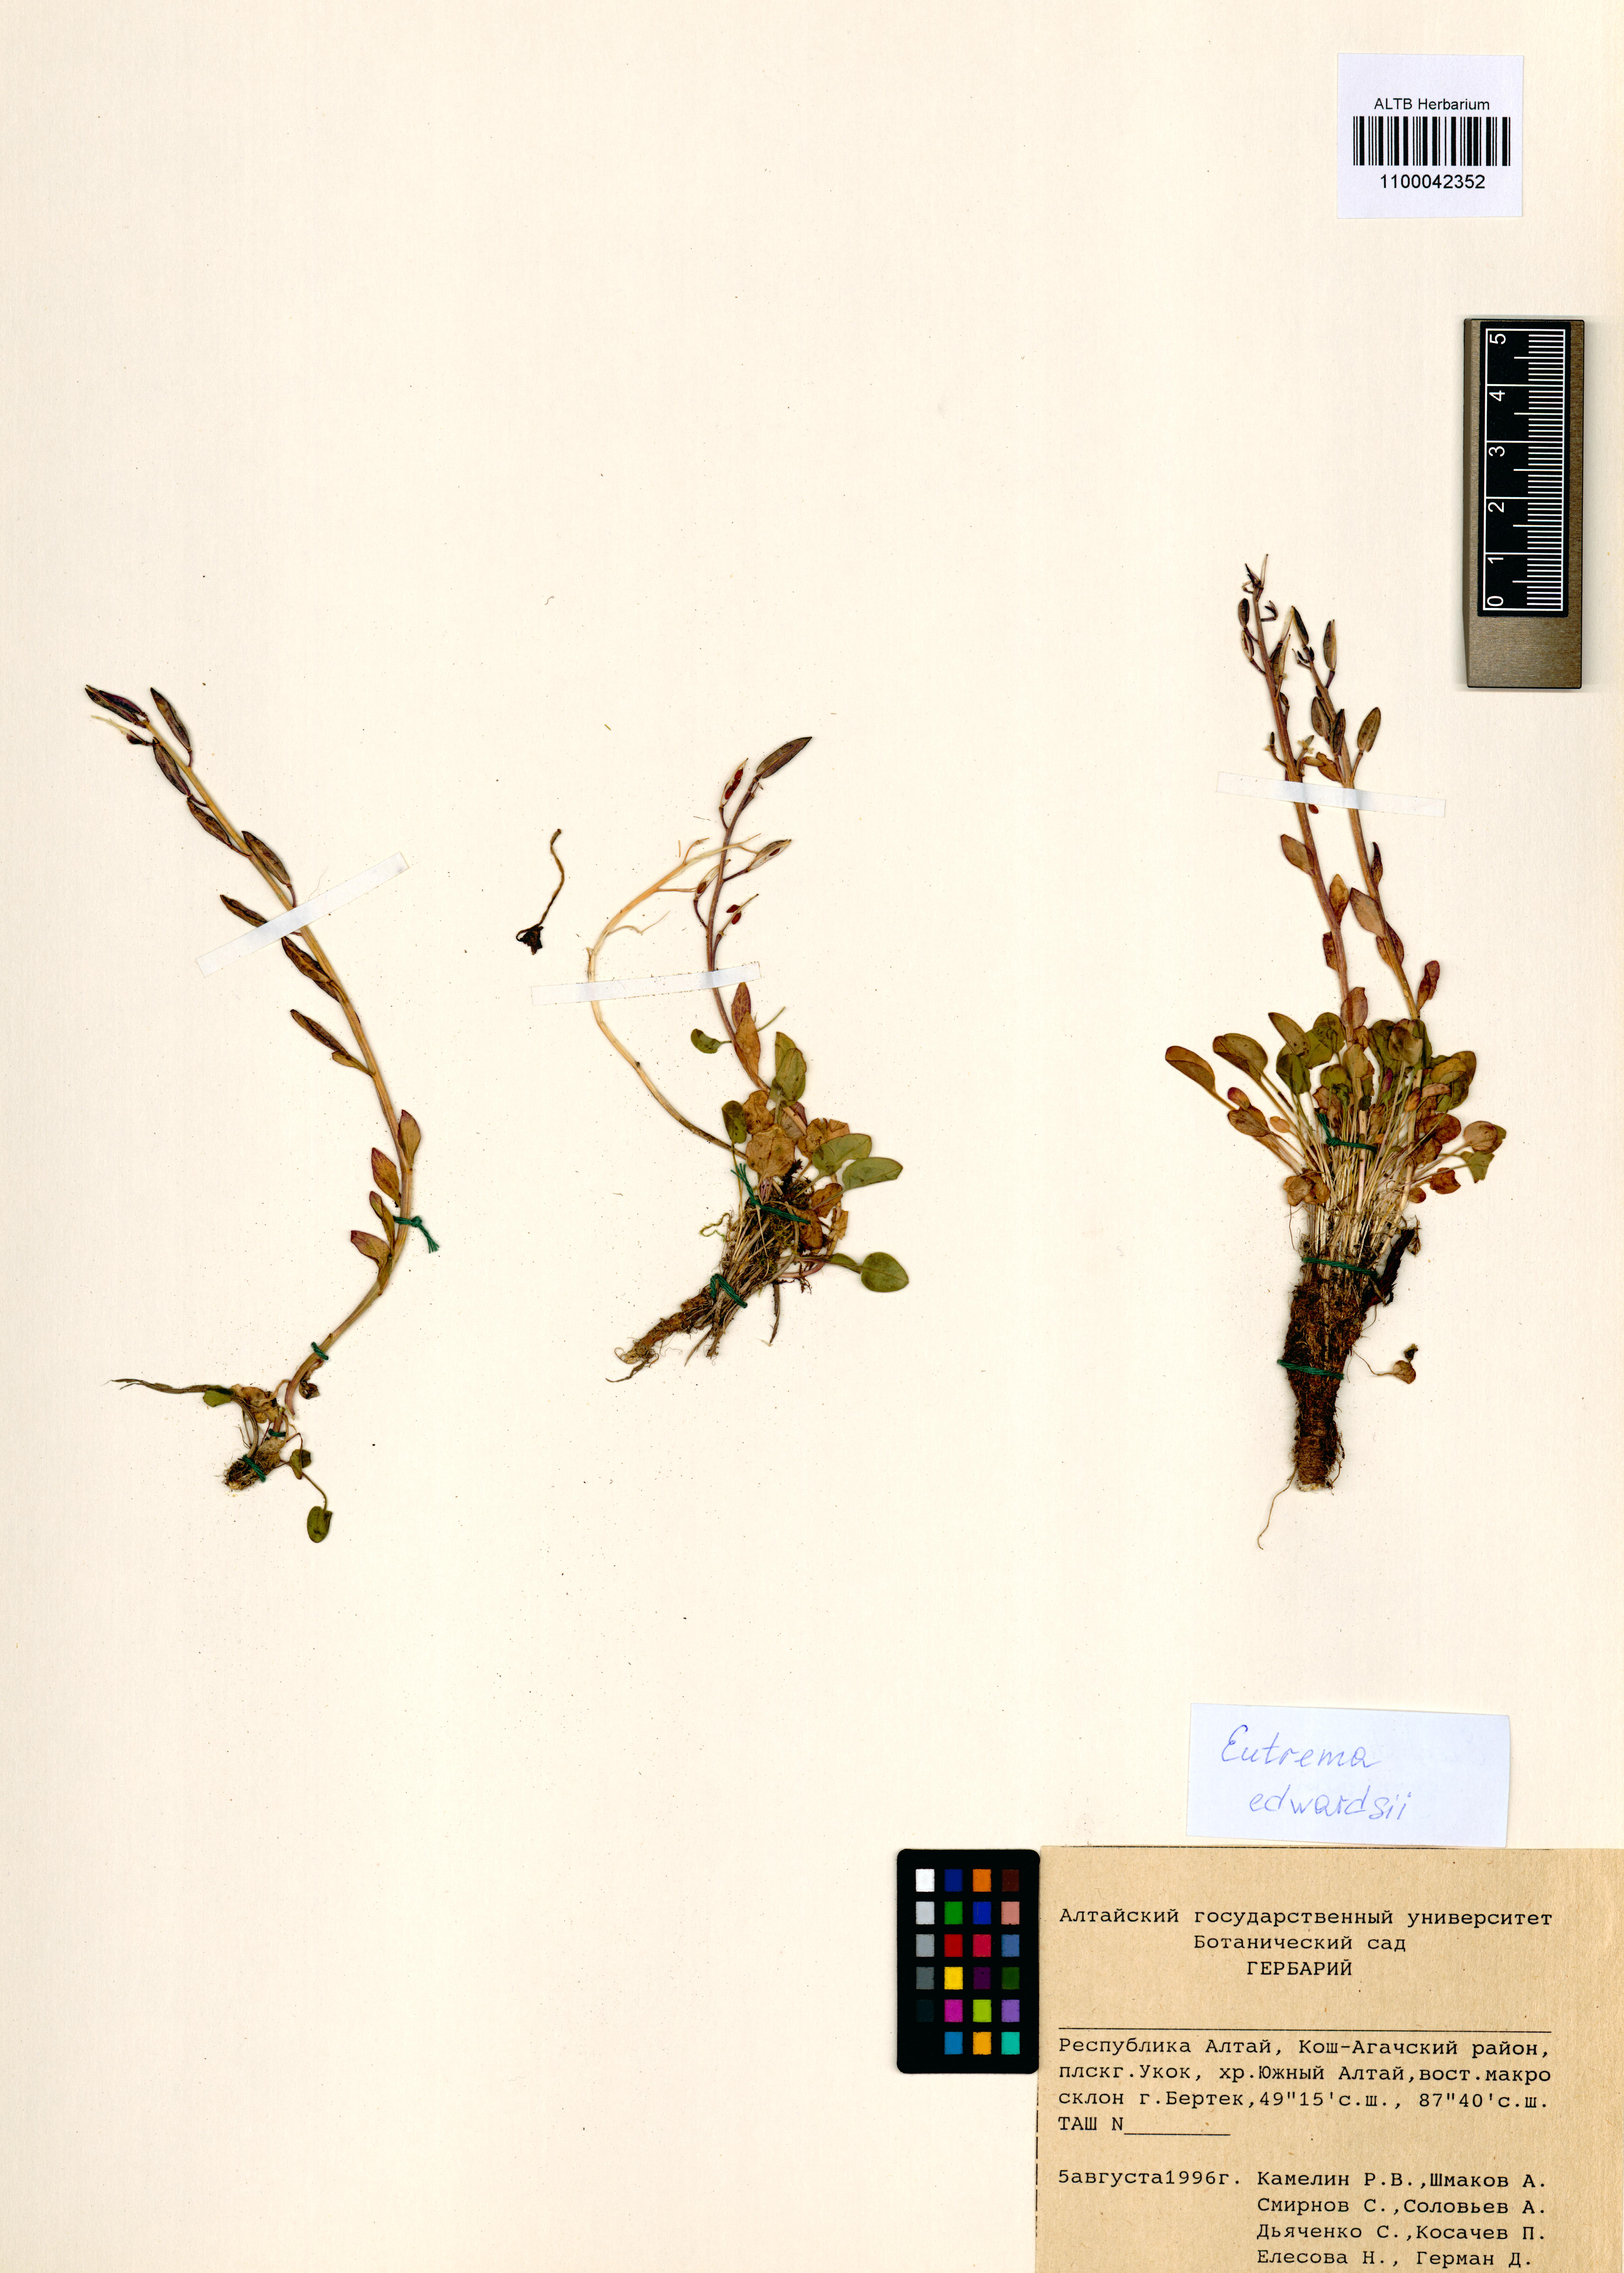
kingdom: Plantae
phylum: Tracheophyta
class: Magnoliopsida
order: Brassicales
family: Brassicaceae
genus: Eutrema
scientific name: Eutrema edwardsii
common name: Penland alpine fen mustard
